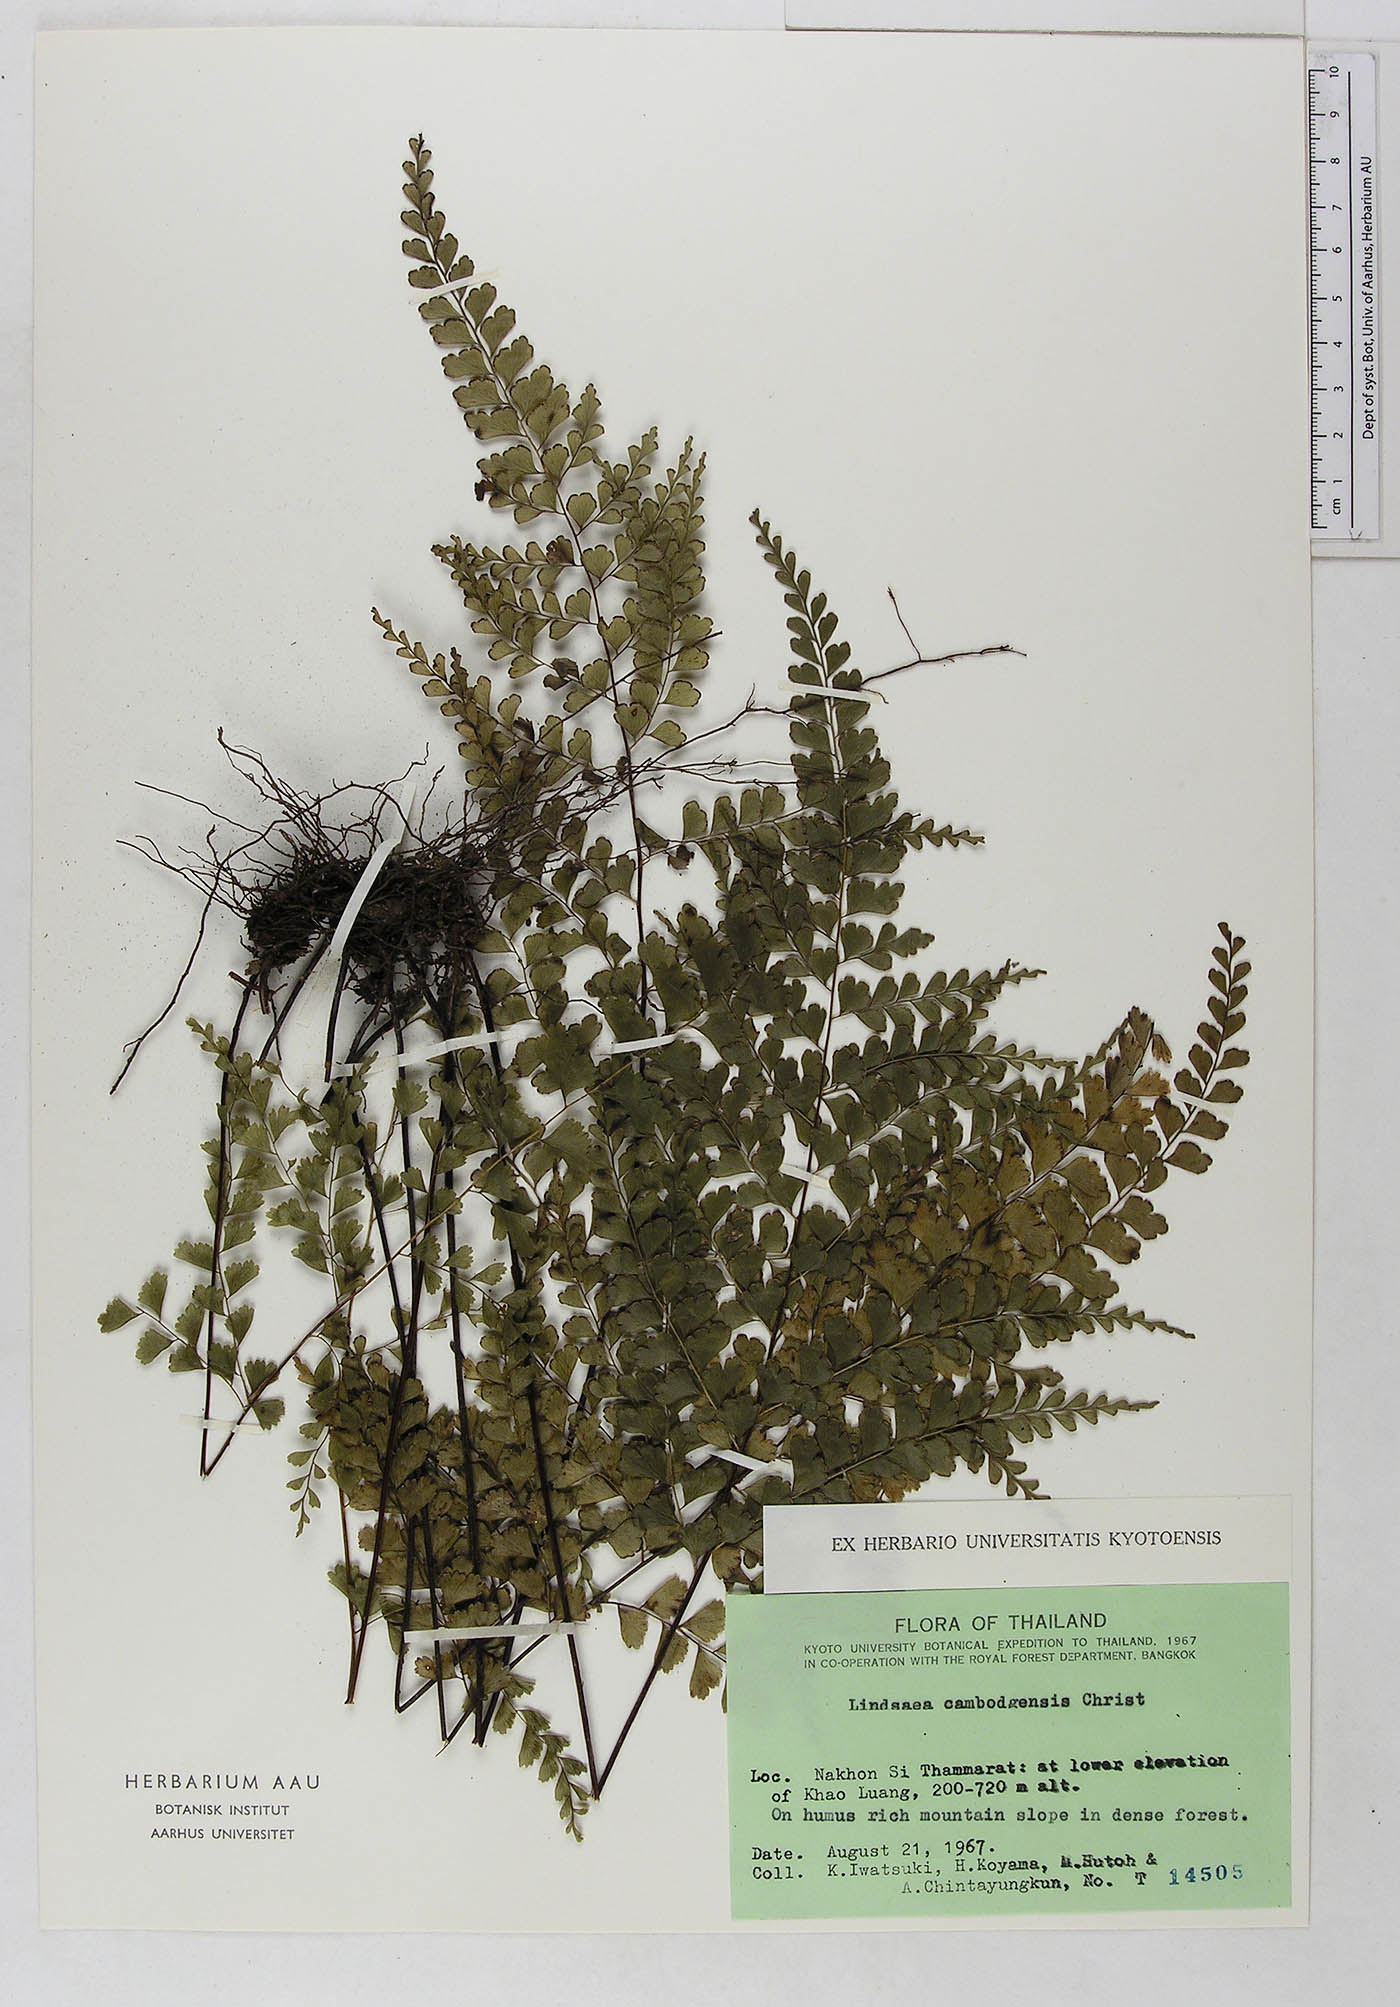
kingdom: Plantae
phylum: Tracheophyta
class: Polypodiopsida
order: Polypodiales
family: Dennstaedtiaceae
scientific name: Dennstaedtiaceae
